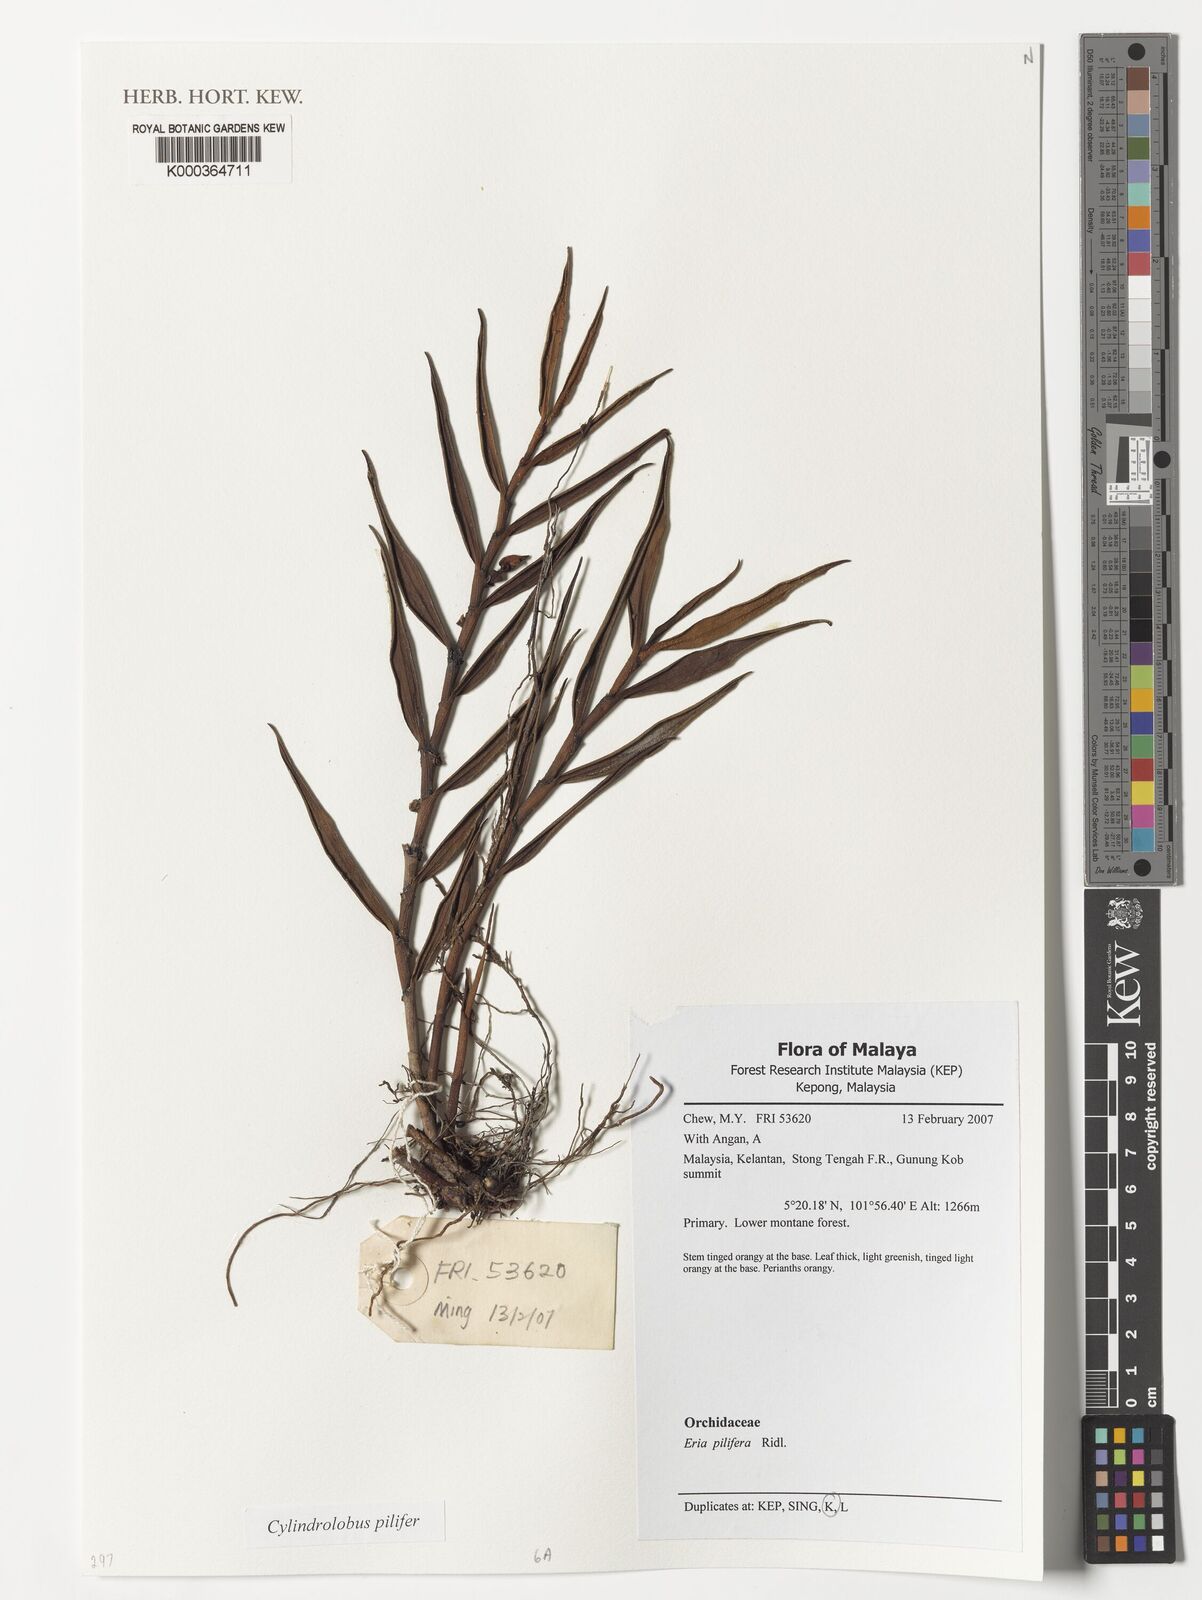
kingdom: Plantae
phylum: Tracheophyta
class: Liliopsida
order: Asparagales
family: Orchidaceae
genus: Cylindrolobus
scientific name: Cylindrolobus lamonganensis
